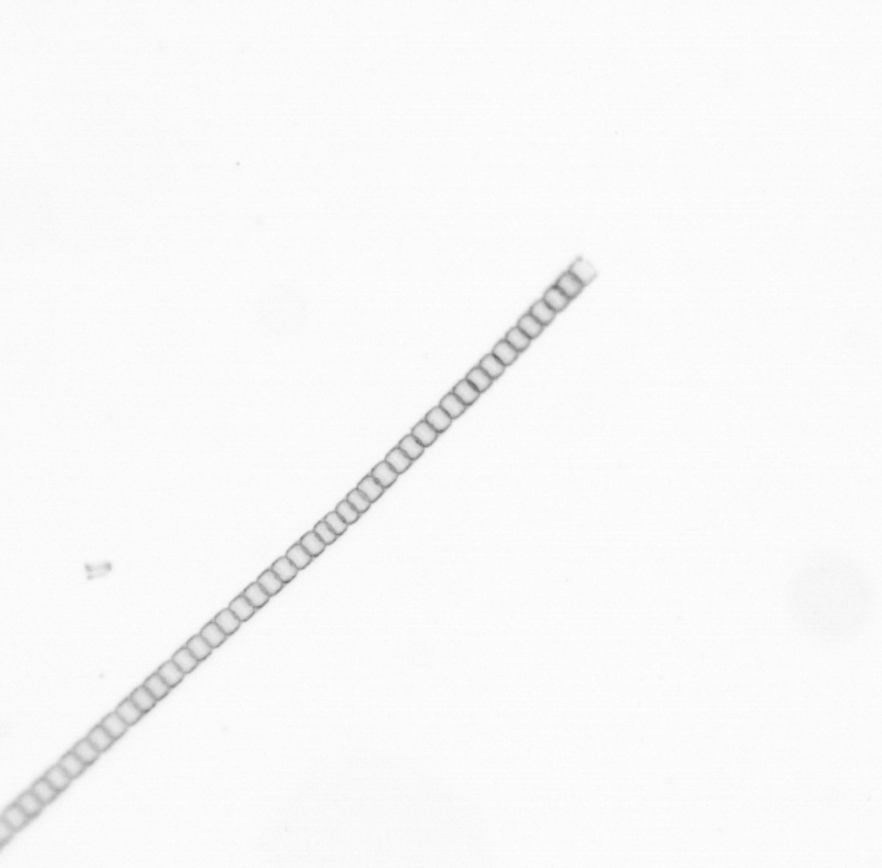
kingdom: Chromista
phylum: Ochrophyta
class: Bacillariophyceae
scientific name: Bacillariophyceae
